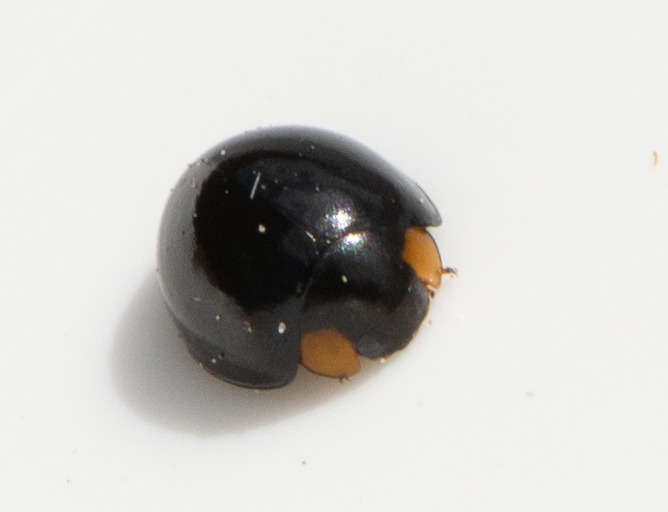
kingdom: Animalia
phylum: Arthropoda
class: Insecta
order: Coleoptera
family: Coccinellidae
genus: Parexochomus
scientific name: Parexochomus nigromaculatus
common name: Mørk mariehøne
